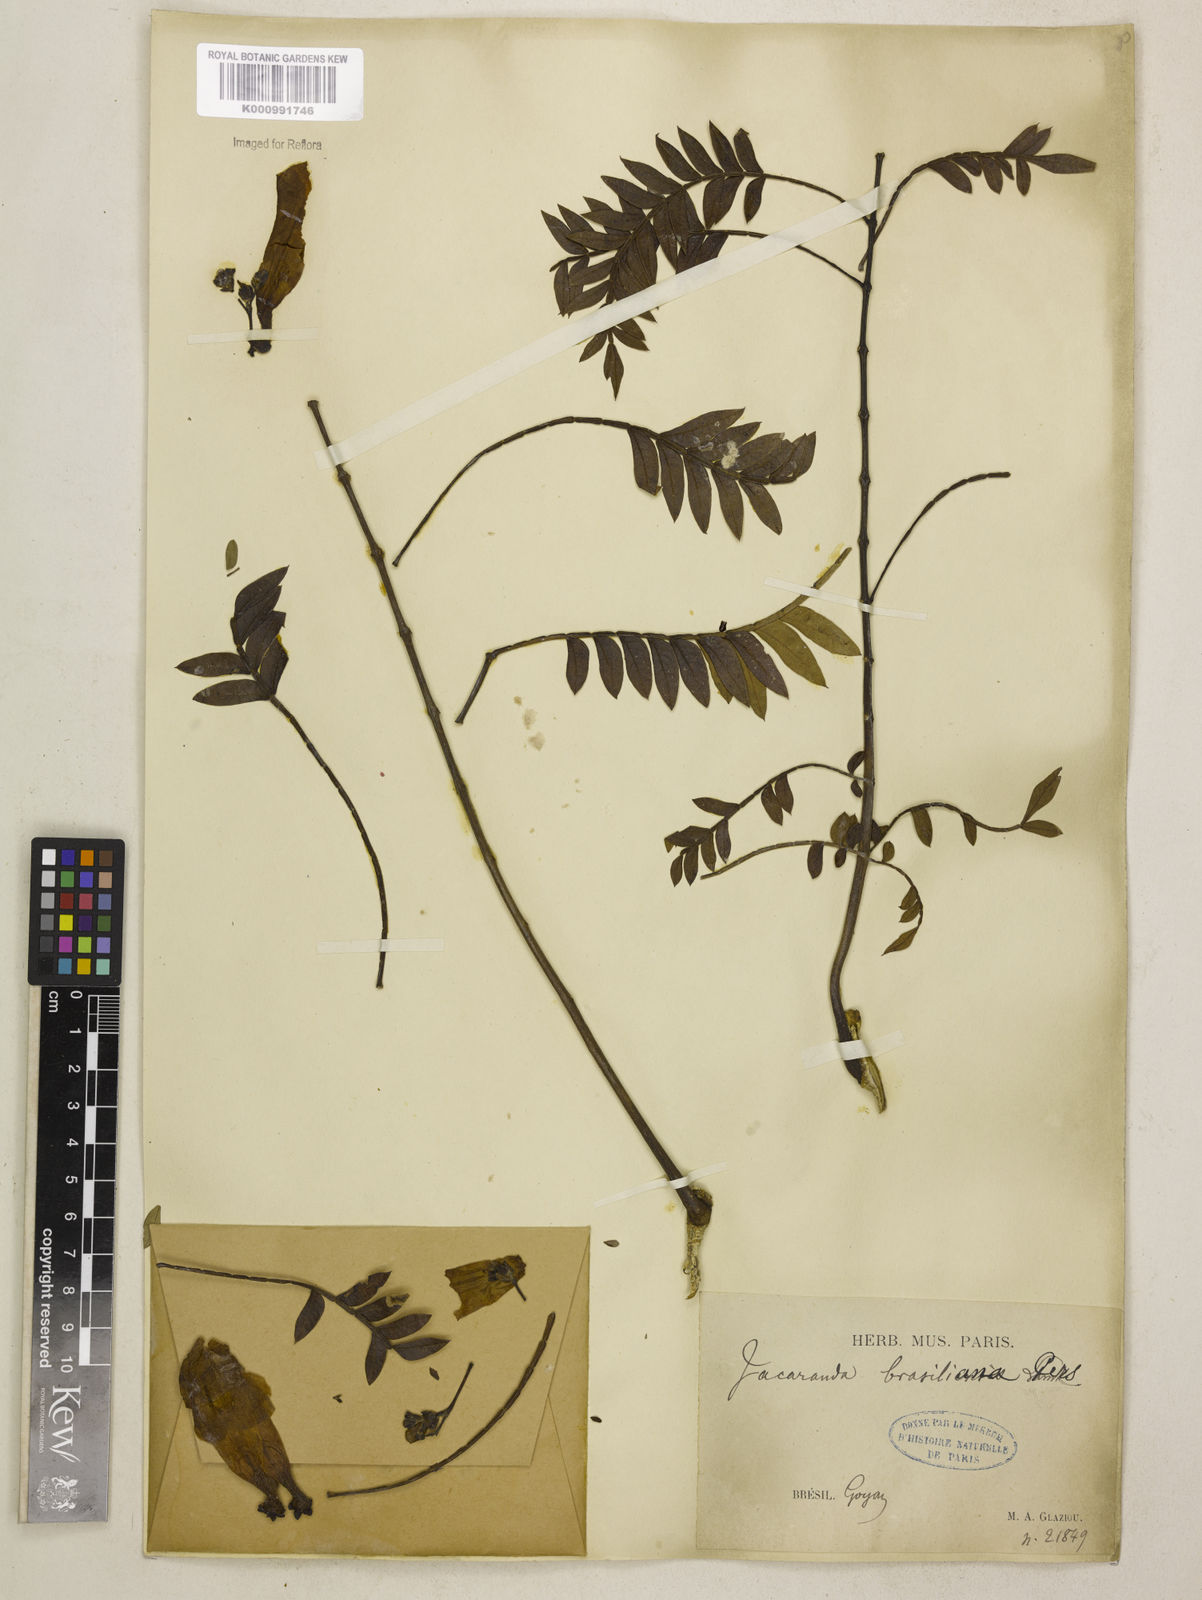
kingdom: Plantae
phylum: Tracheophyta
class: Magnoliopsida
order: Lamiales
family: Bignoniaceae
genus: Jacaranda
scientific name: Jacaranda brasiliana
